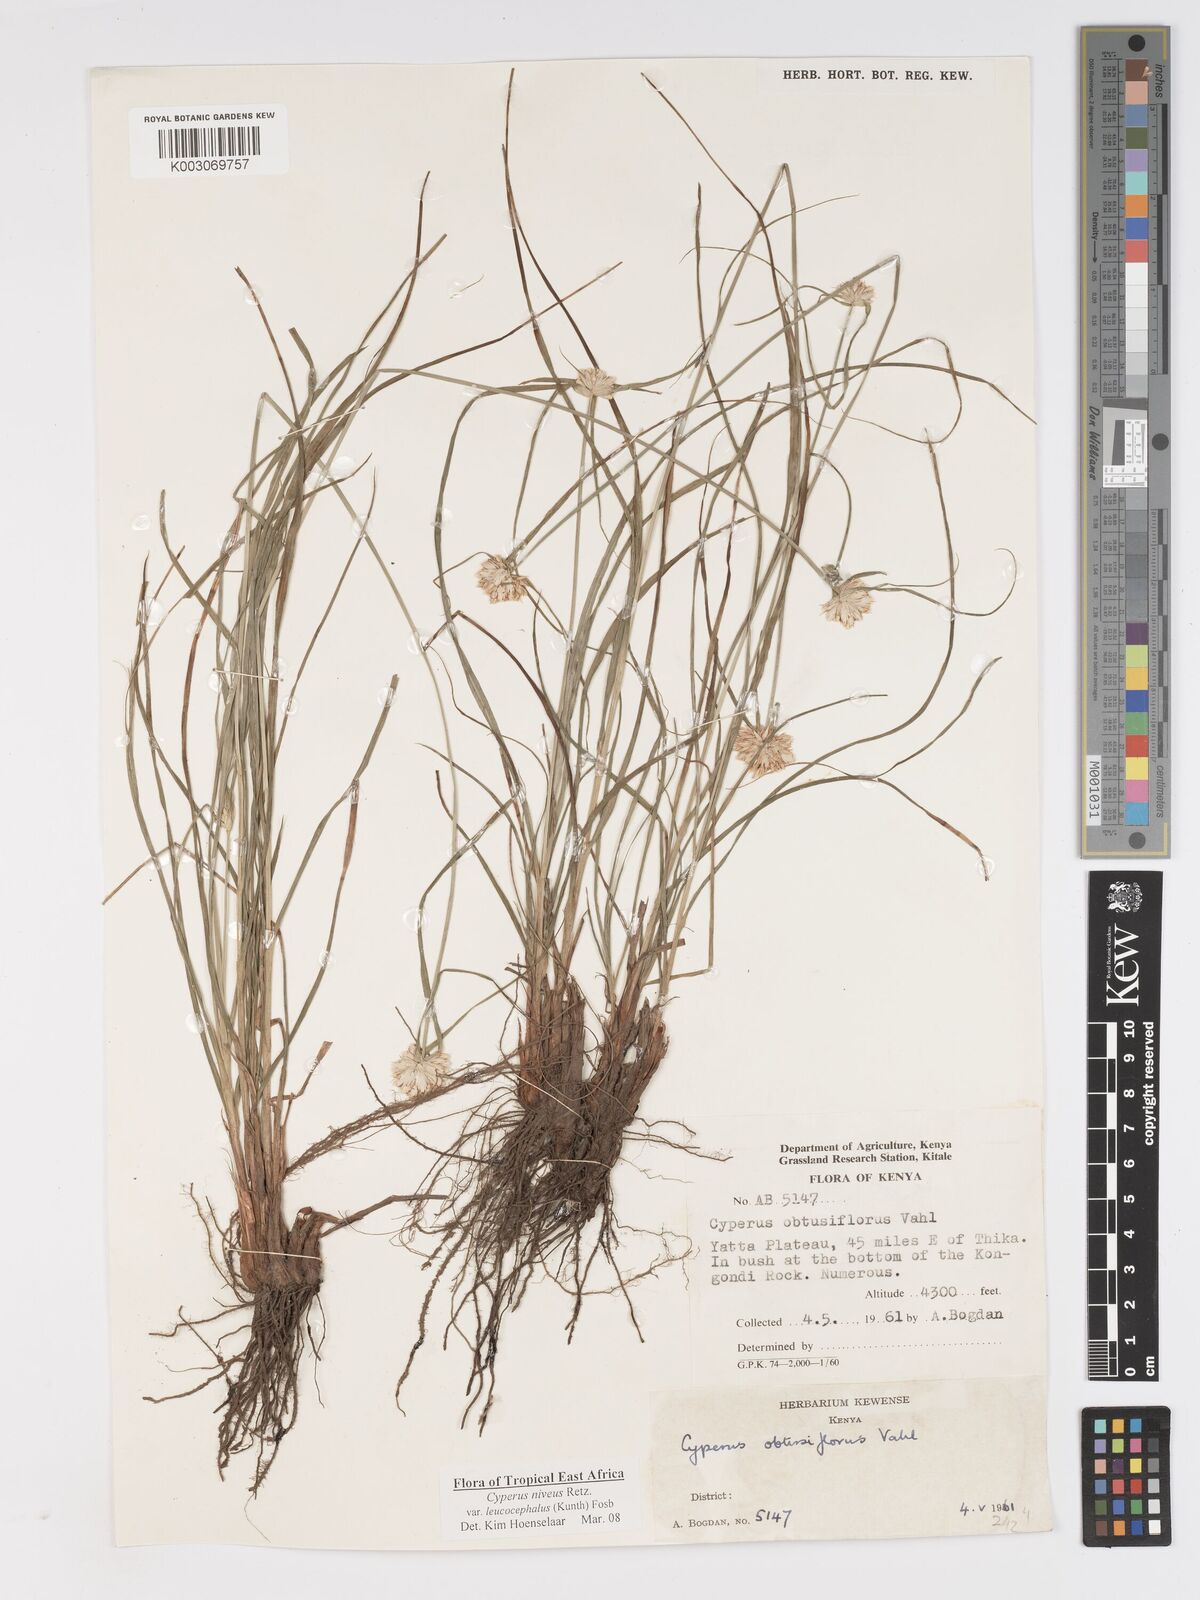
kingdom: Plantae
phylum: Tracheophyta
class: Liliopsida
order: Poales
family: Cyperaceae
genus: Cyperus
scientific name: Cyperus niveus
